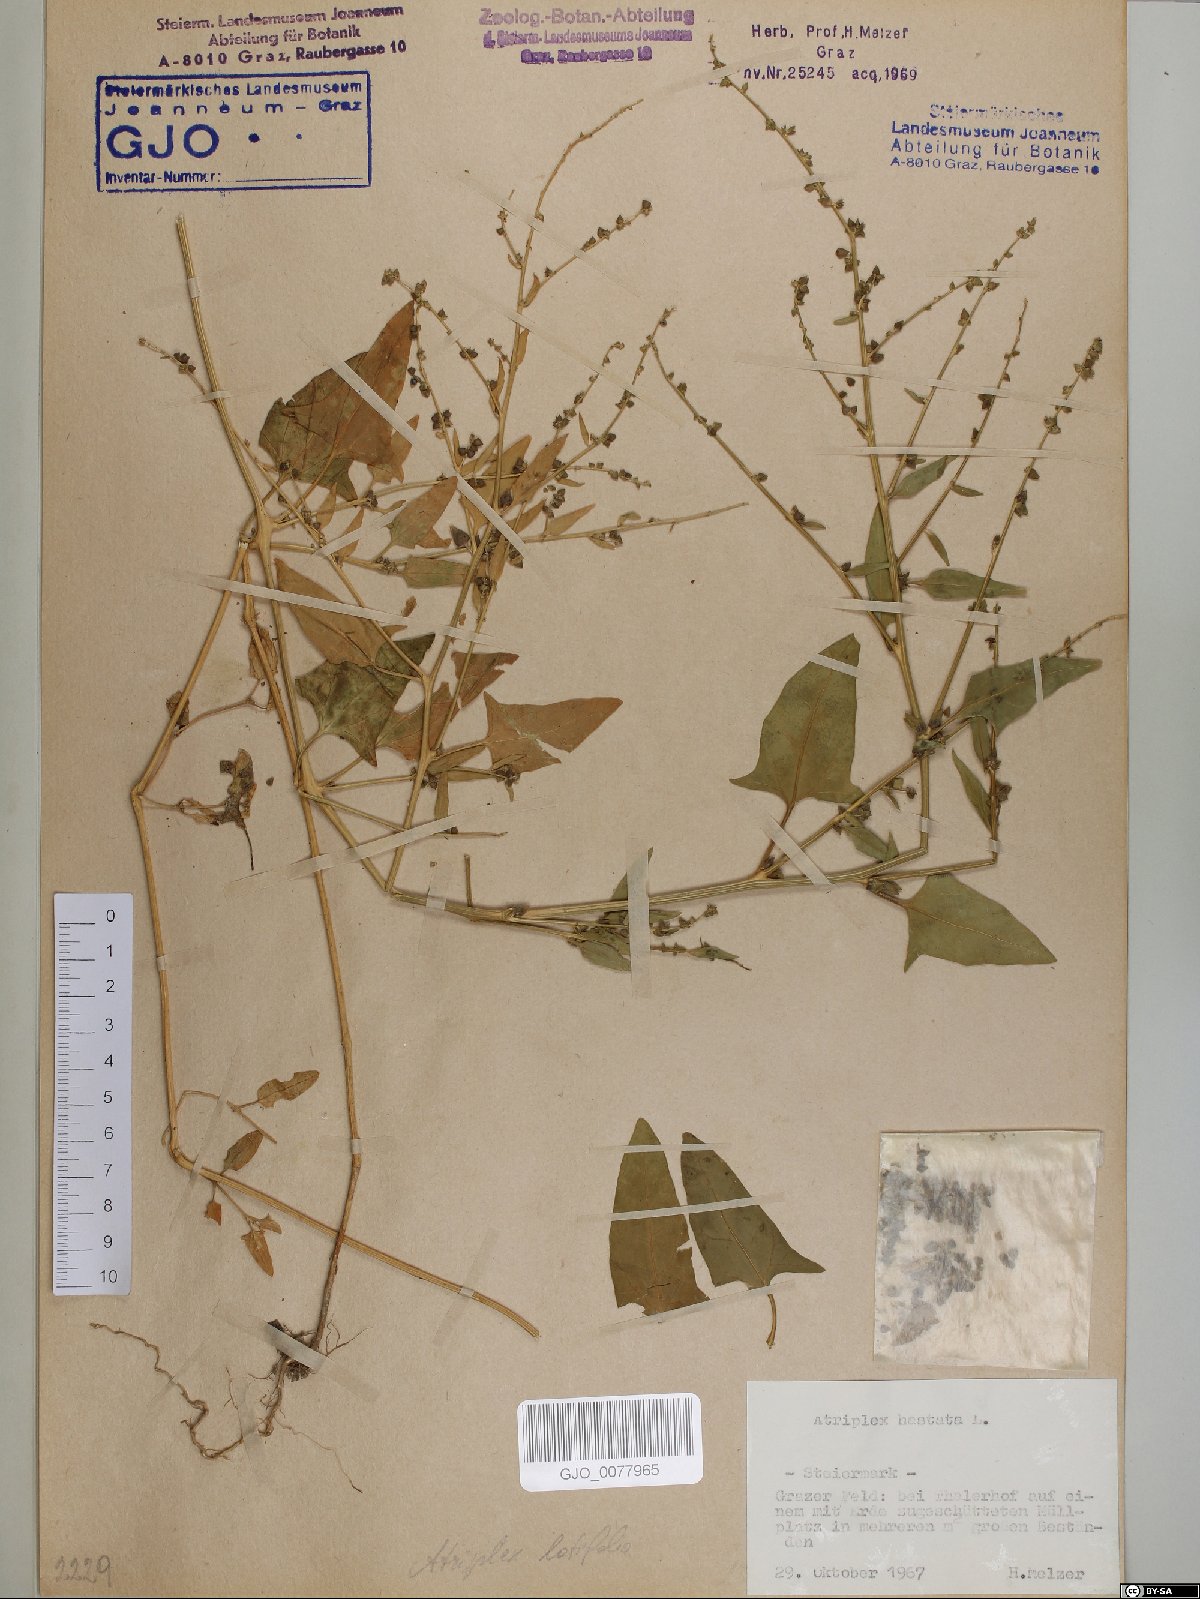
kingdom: Plantae
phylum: Tracheophyta
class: Magnoliopsida
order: Caryophyllales
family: Amaranthaceae
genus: Atriplex
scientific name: Atriplex calotheca
